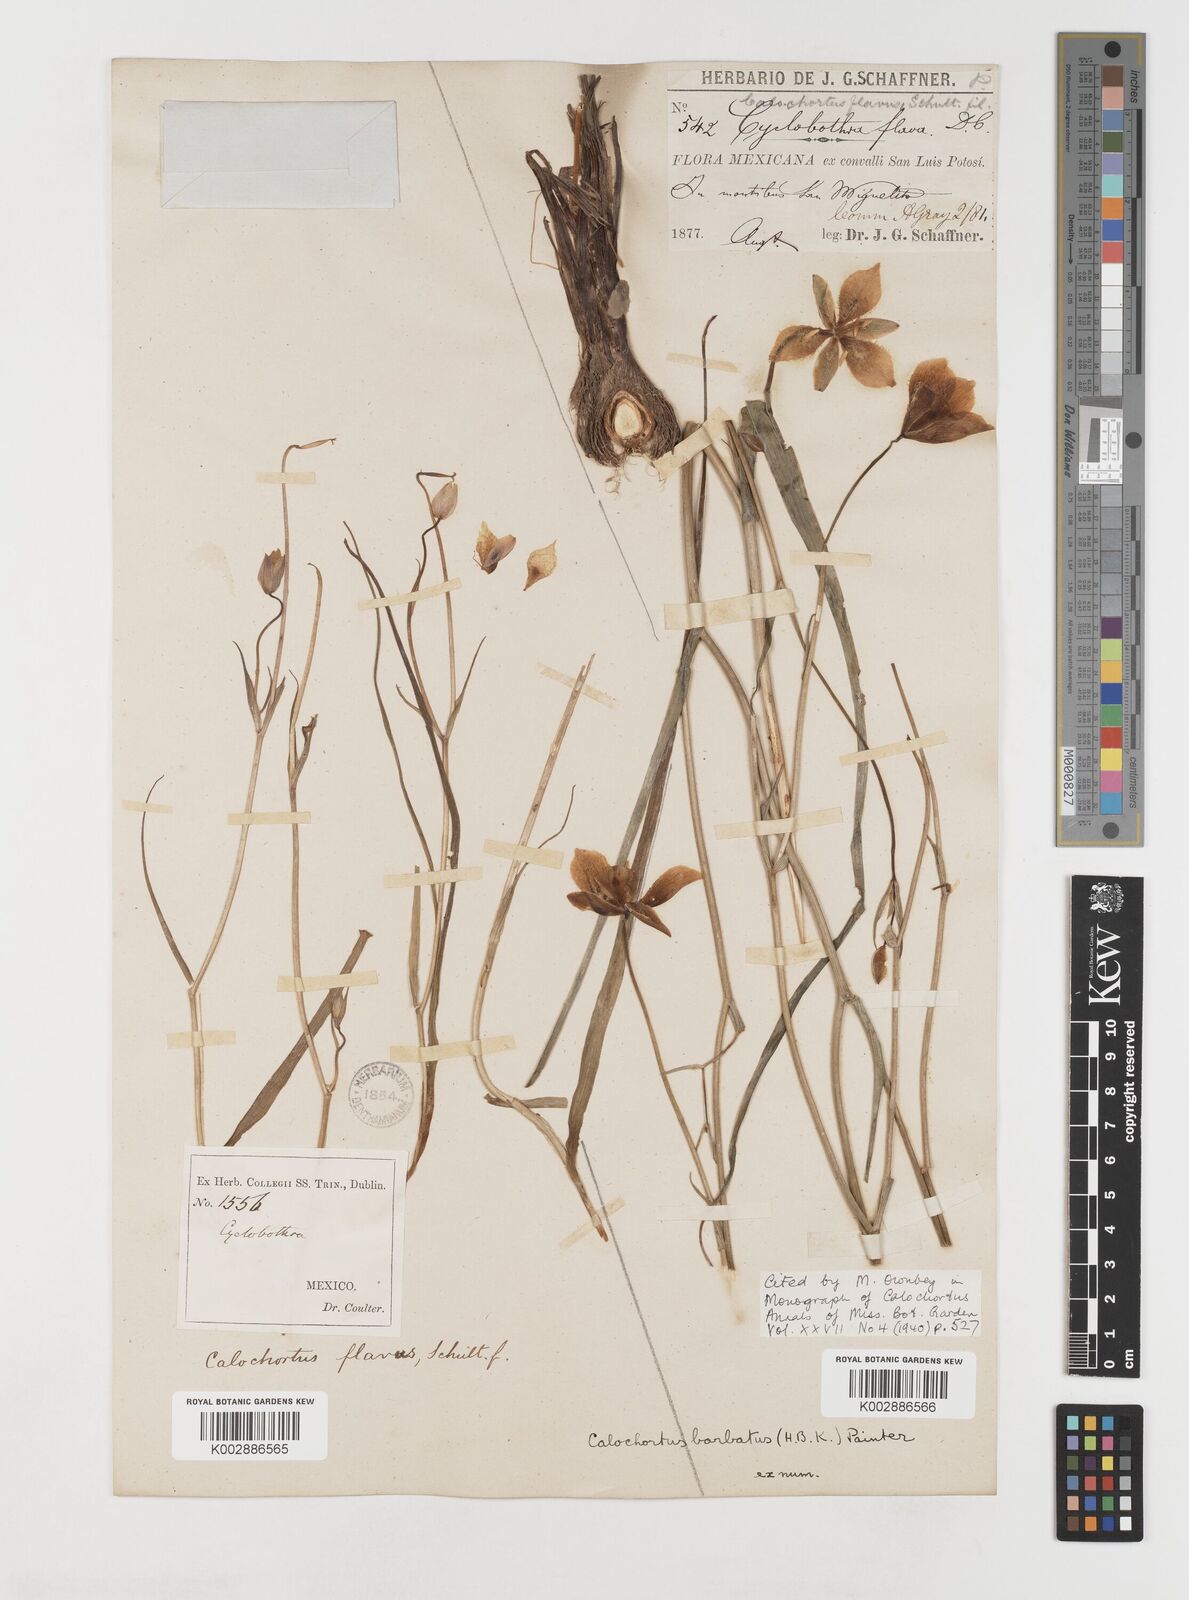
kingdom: Plantae
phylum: Tracheophyta
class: Liliopsida
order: Liliales
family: Liliaceae
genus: Calochortus
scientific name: Calochortus barbatus
